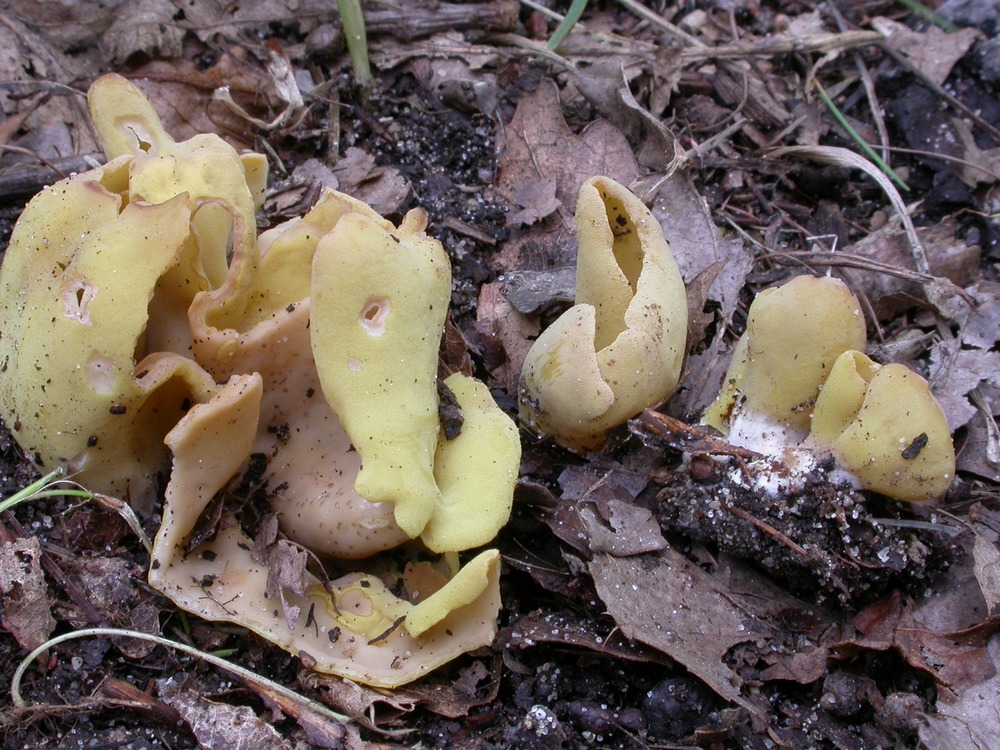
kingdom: Fungi
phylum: Ascomycota
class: Pezizomycetes
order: Pezizales
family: Otideaceae
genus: Otidea
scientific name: Otidea cantharella
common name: citrongul ørebæger
